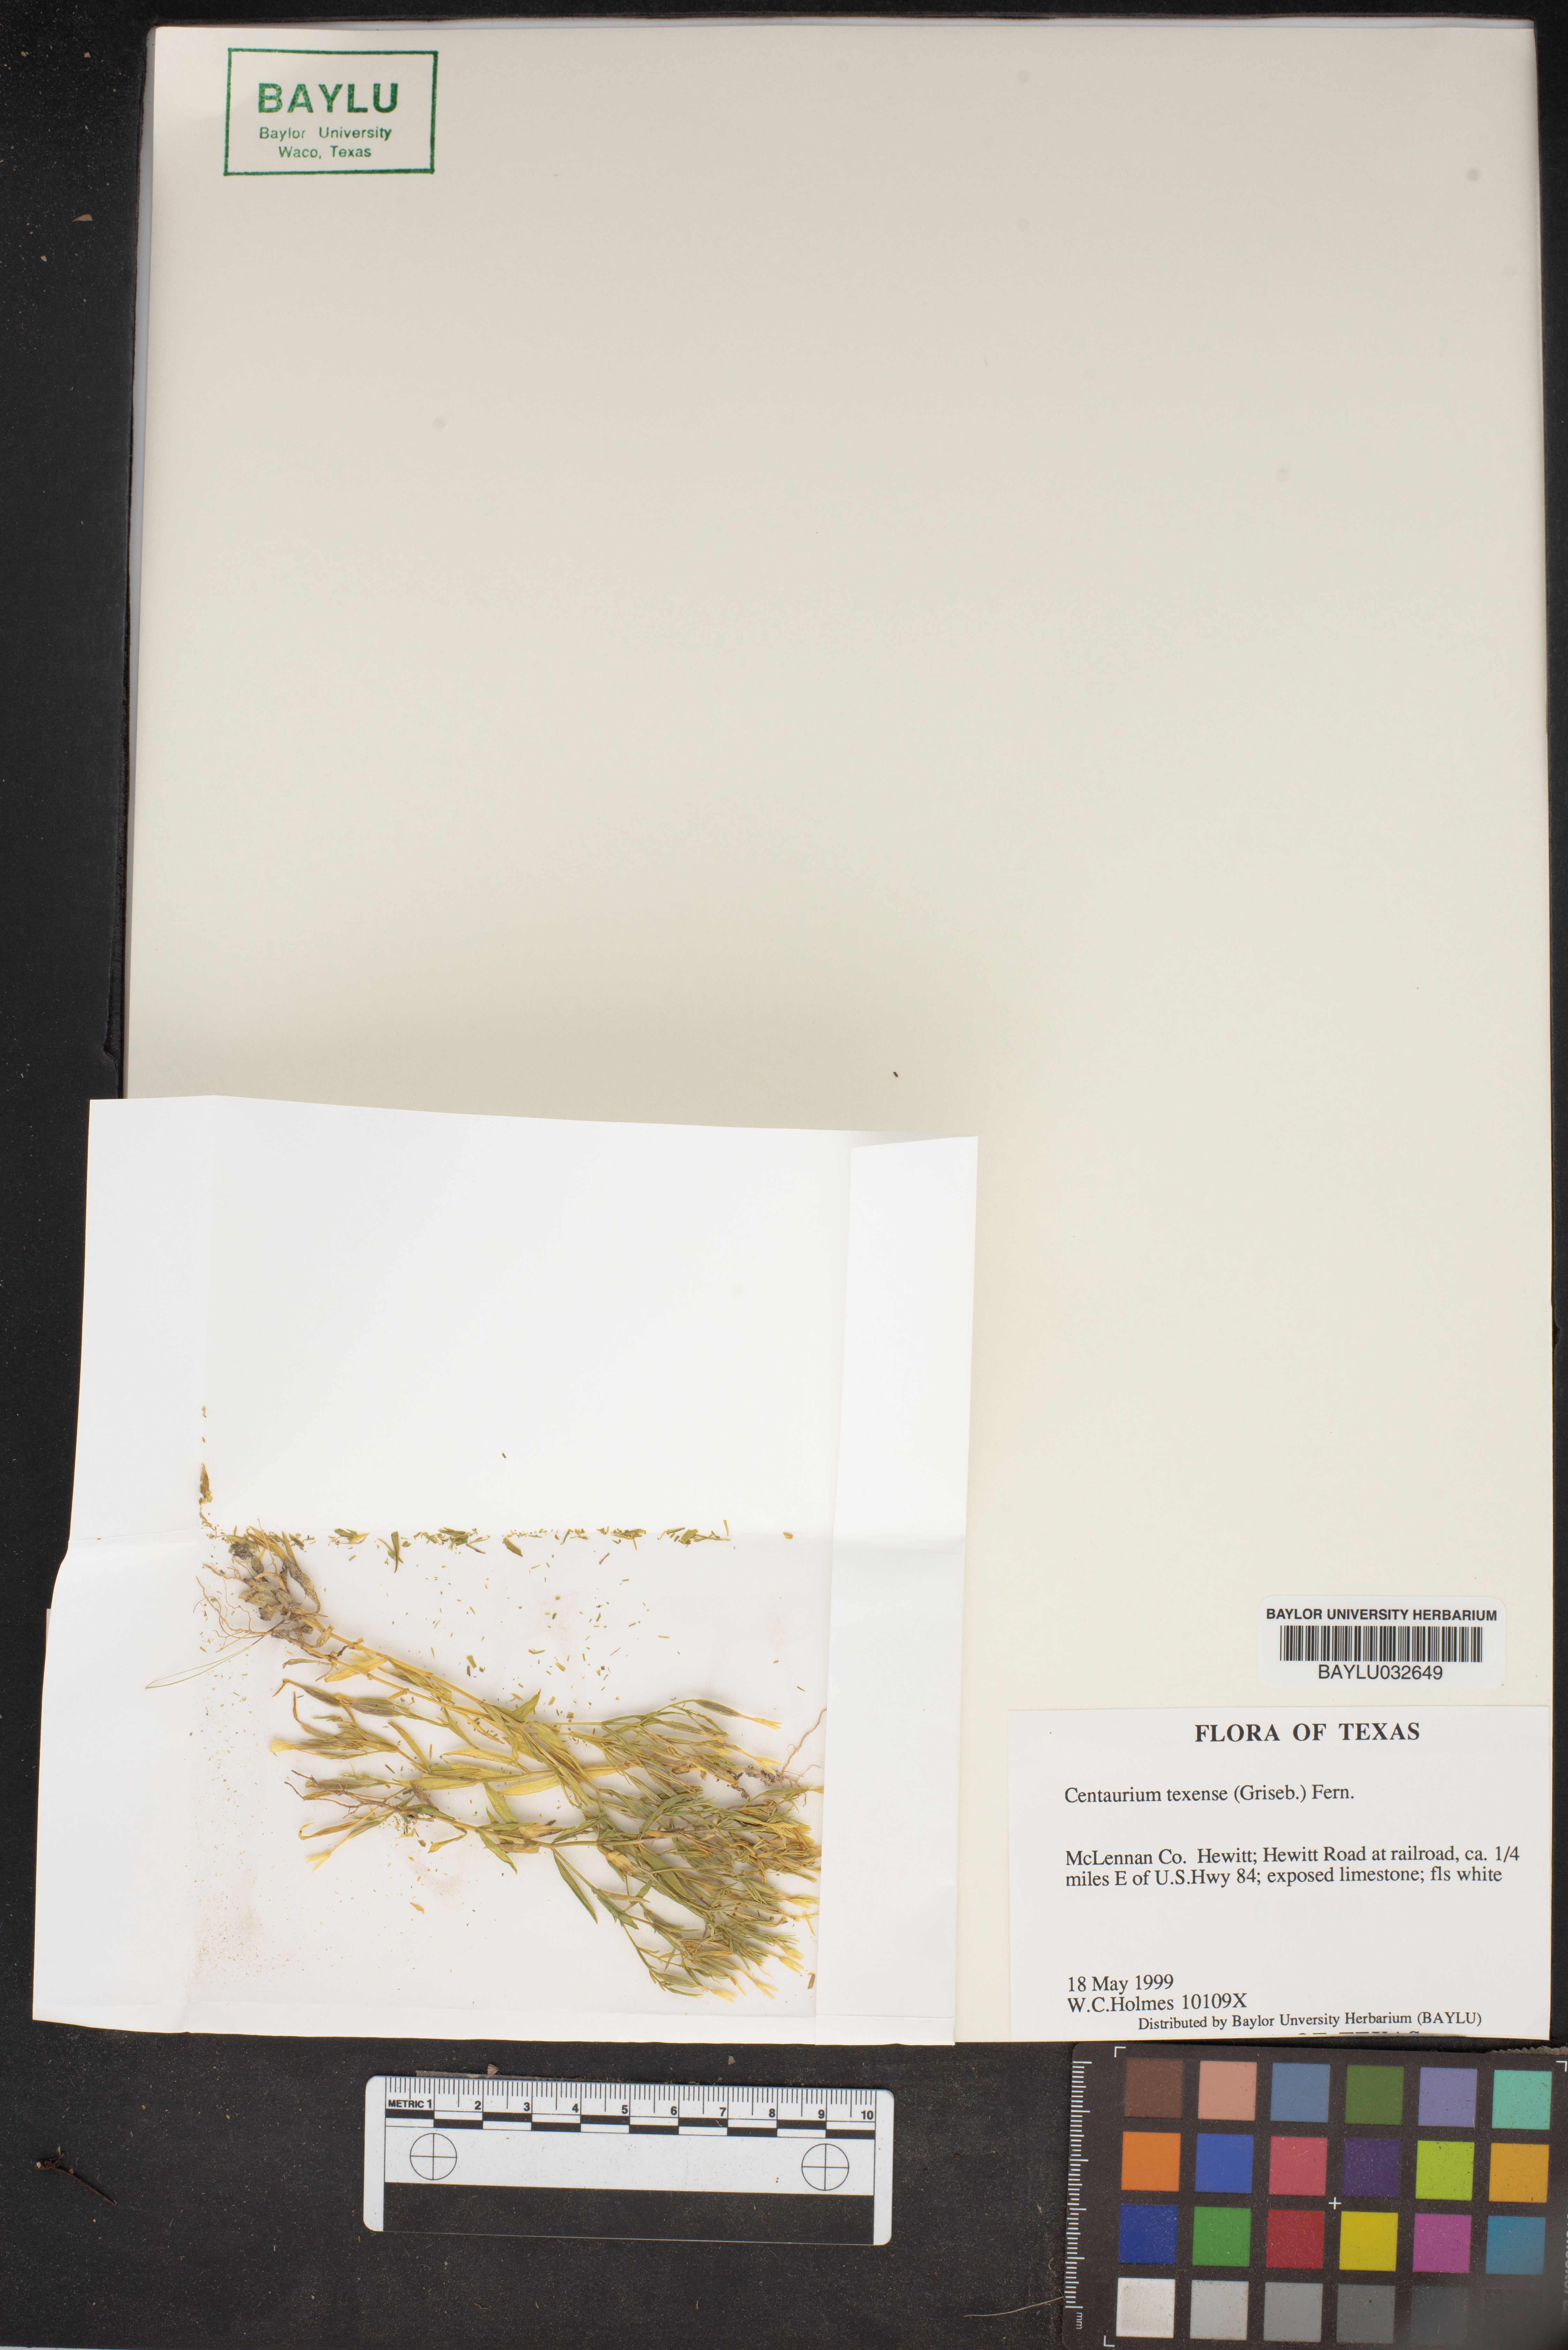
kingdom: Plantae
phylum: Tracheophyta
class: Magnoliopsida
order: Gentianales
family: Gentianaceae
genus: Zeltnera
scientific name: Zeltnera texensis
